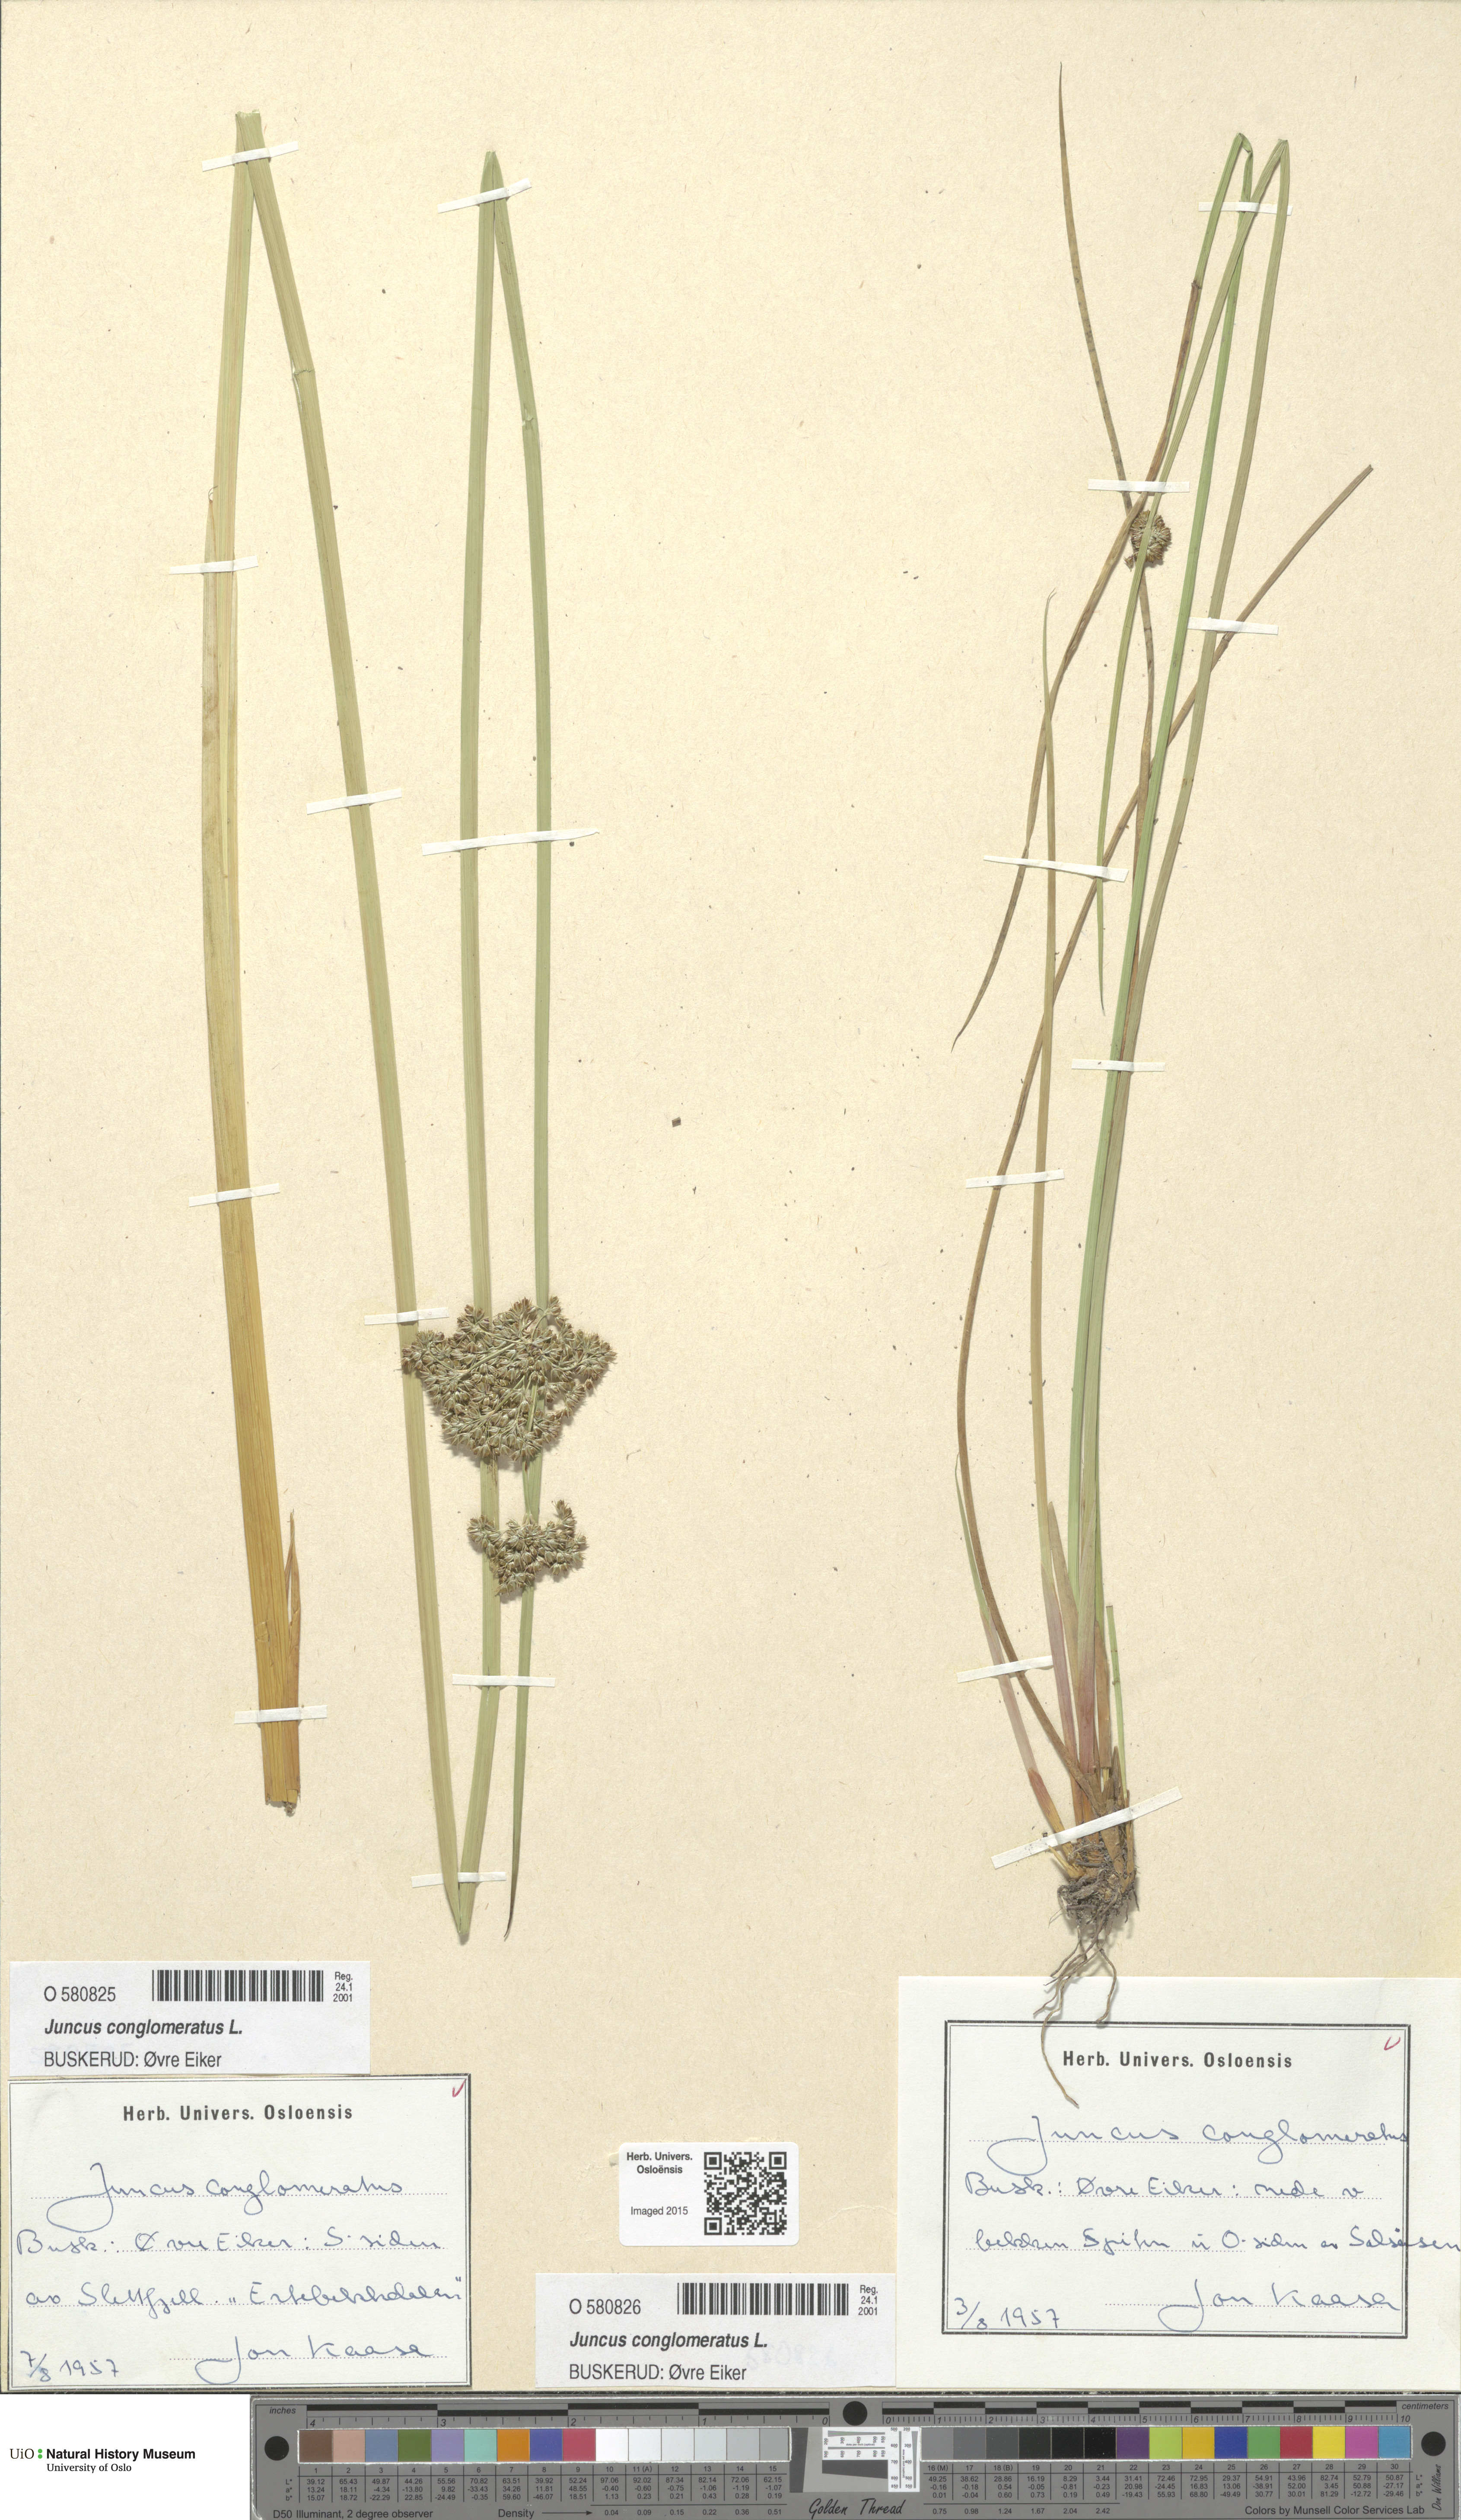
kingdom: Plantae
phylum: Tracheophyta
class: Liliopsida
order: Poales
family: Juncaceae
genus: Juncus
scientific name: Juncus conglomeratus
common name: Compact rush
